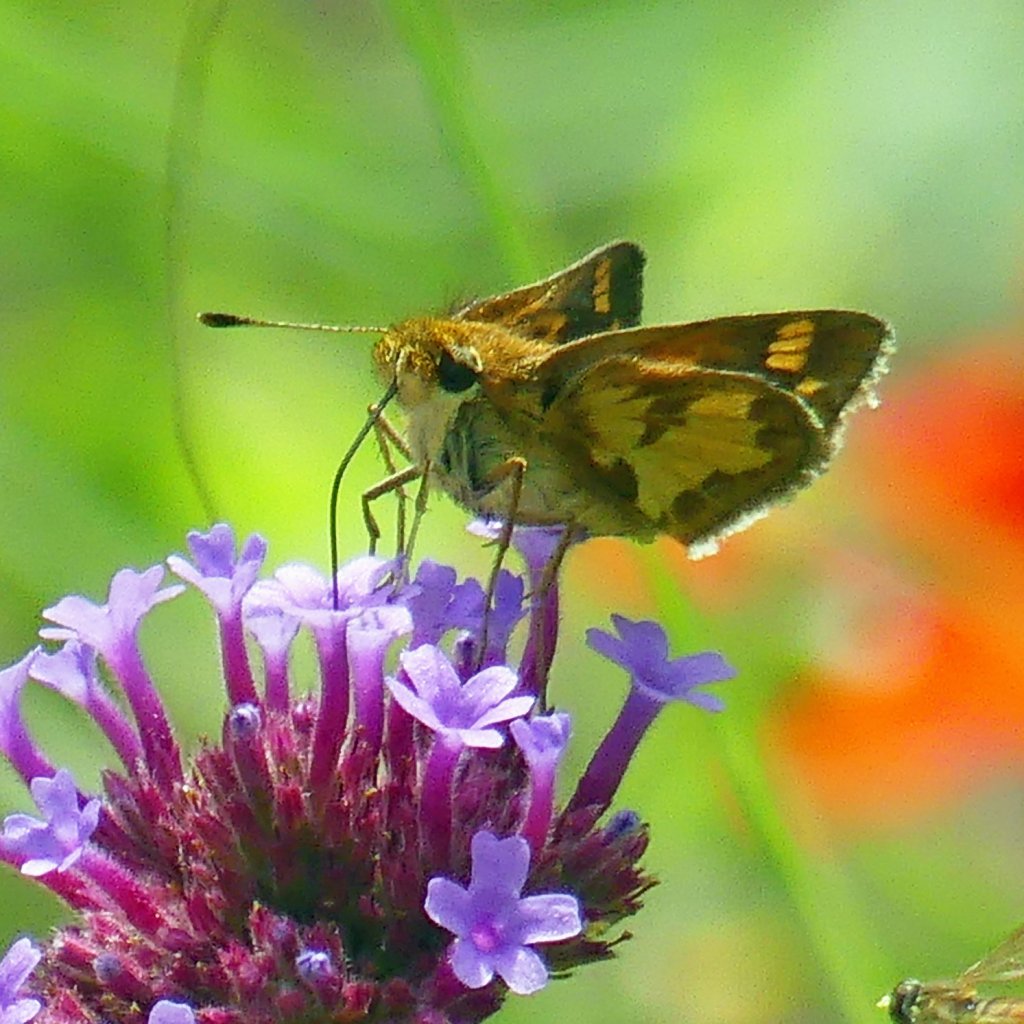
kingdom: Animalia
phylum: Arthropoda
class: Insecta
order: Lepidoptera
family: Hesperiidae
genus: Polites
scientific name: Polites coras
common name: Peck's Skipper
